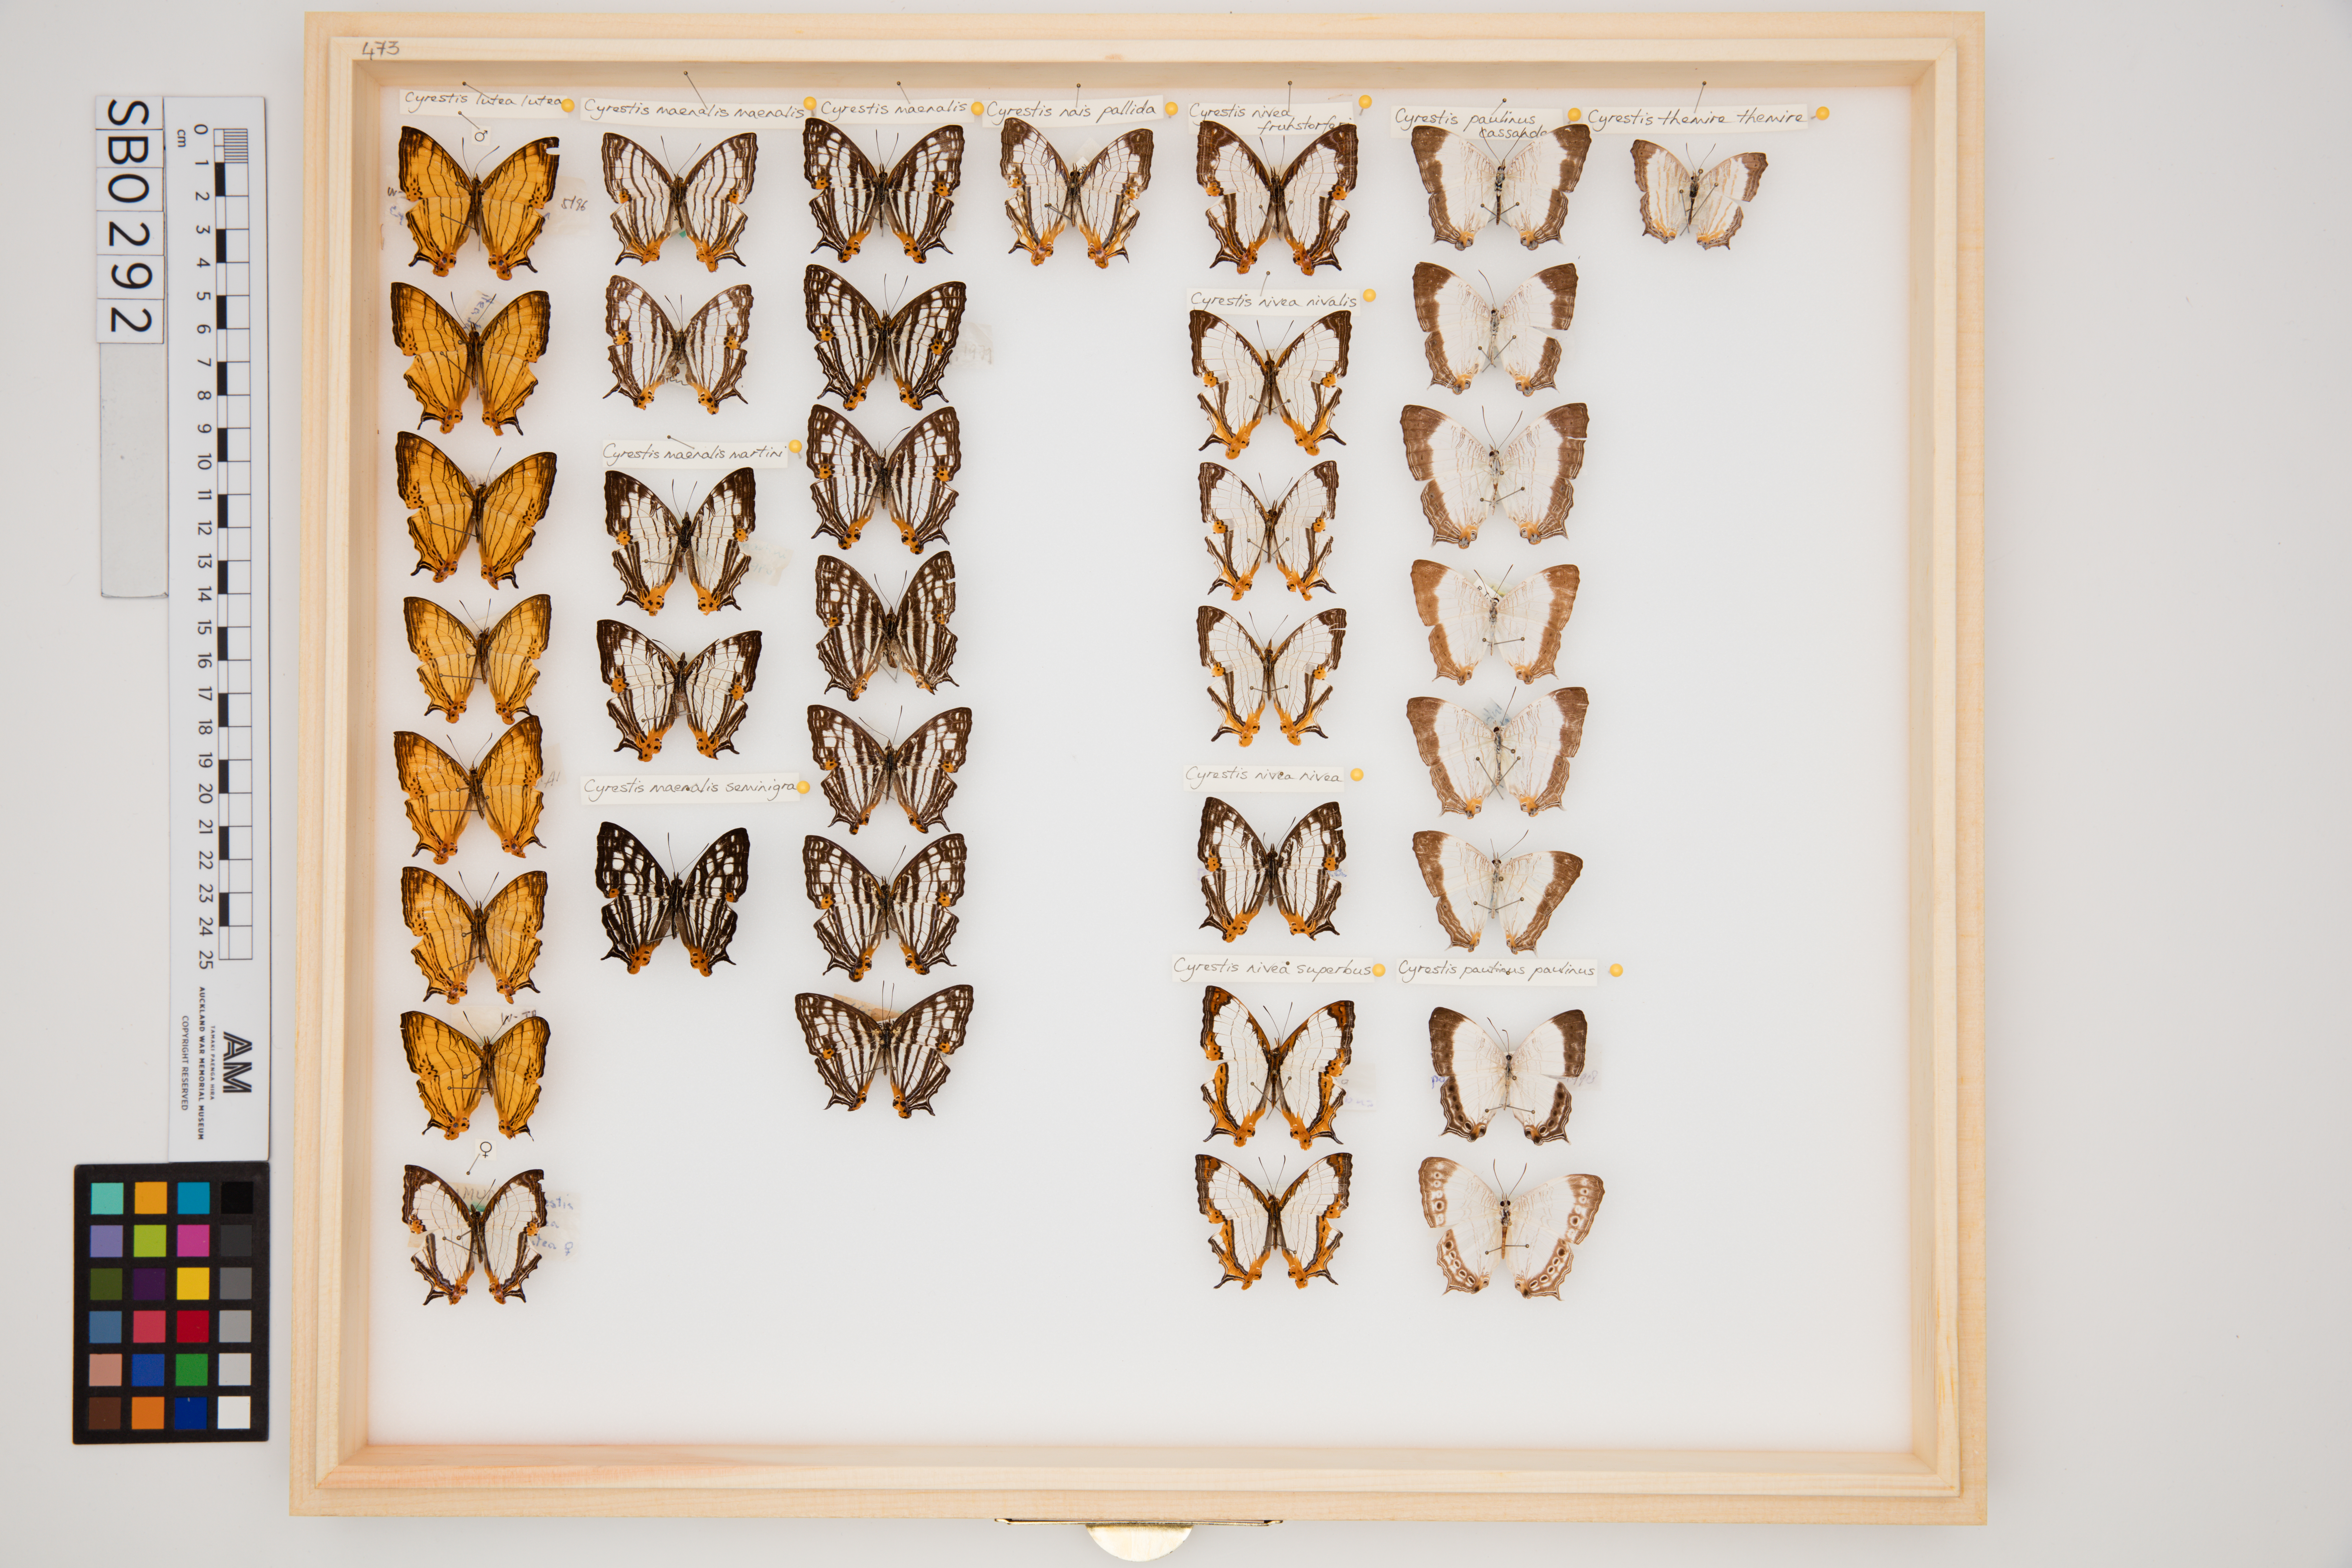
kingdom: Animalia
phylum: Arthropoda
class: Insecta
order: Lepidoptera
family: Nymphalidae
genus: Cyrestis
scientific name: Cyrestis nivea
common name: Straight line mapwing
